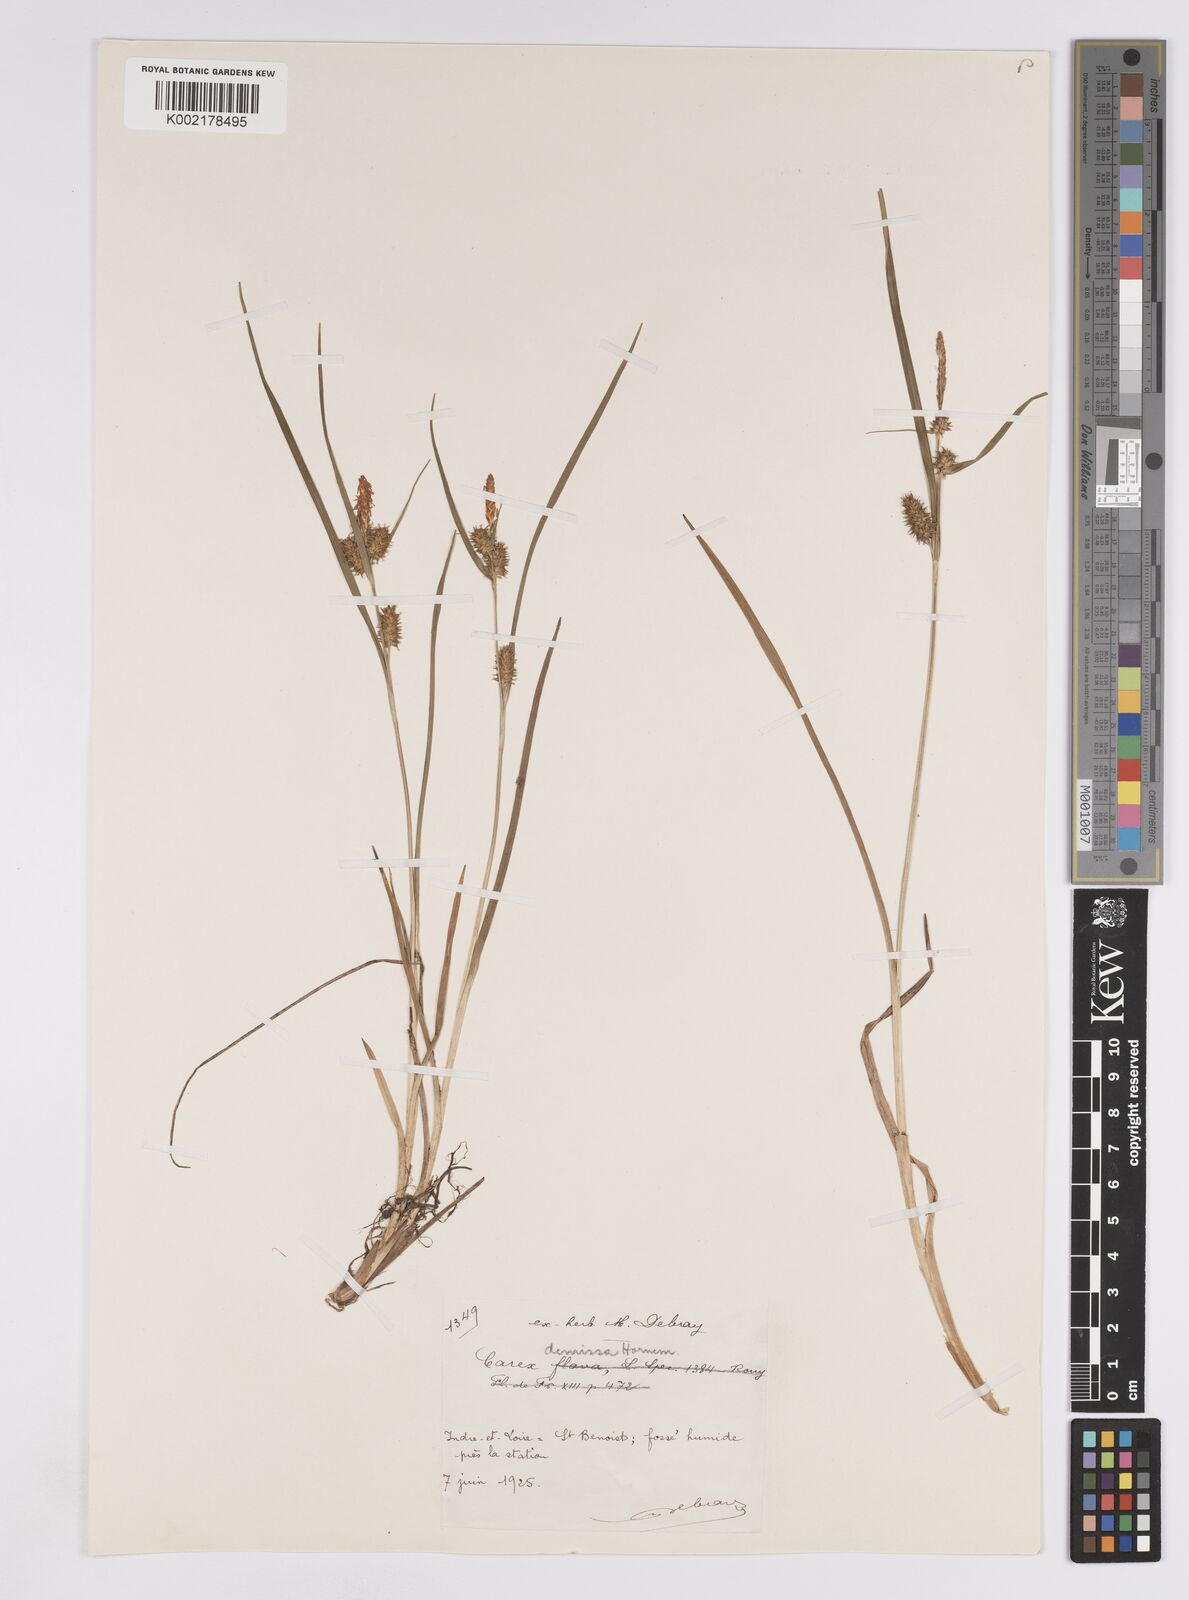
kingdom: Plantae
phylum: Tracheophyta
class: Liliopsida
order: Poales
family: Cyperaceae
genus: Carex
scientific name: Carex demissa
